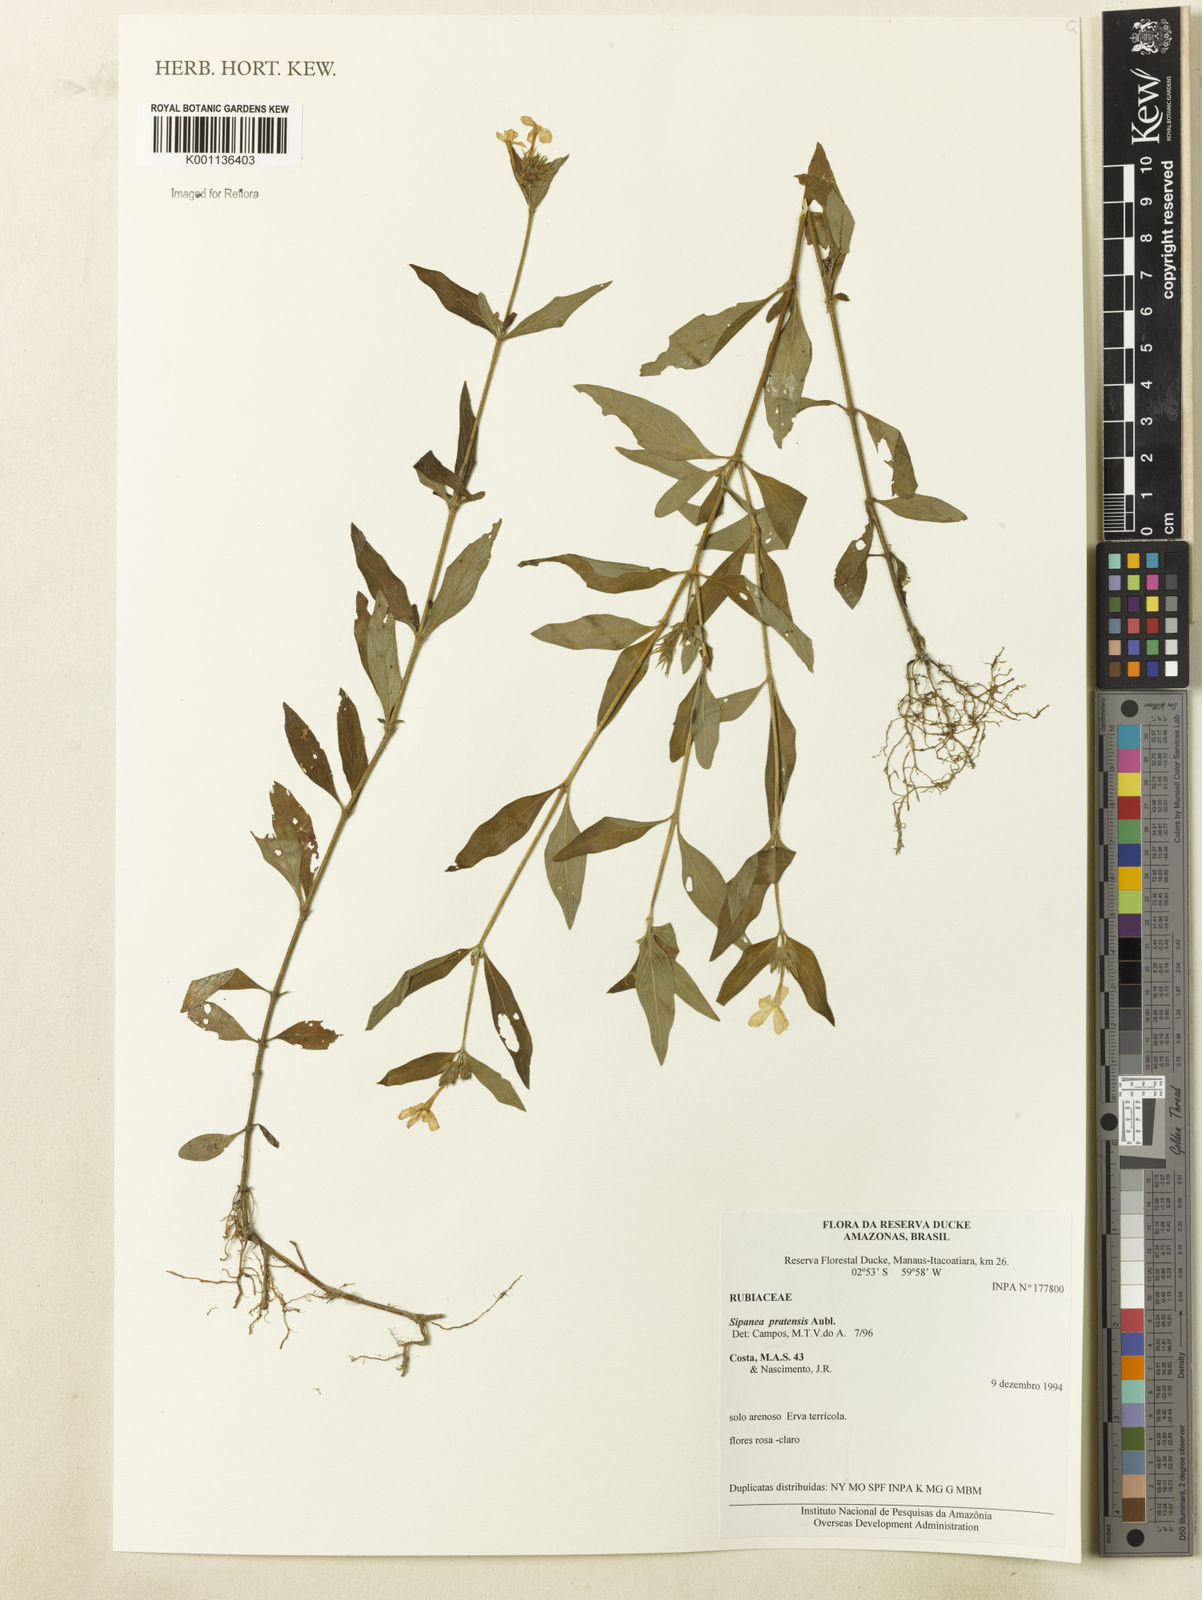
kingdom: Plantae
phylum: Tracheophyta
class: Magnoliopsida
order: Gentianales
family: Rubiaceae
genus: Sipanea
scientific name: Sipanea pratensis
